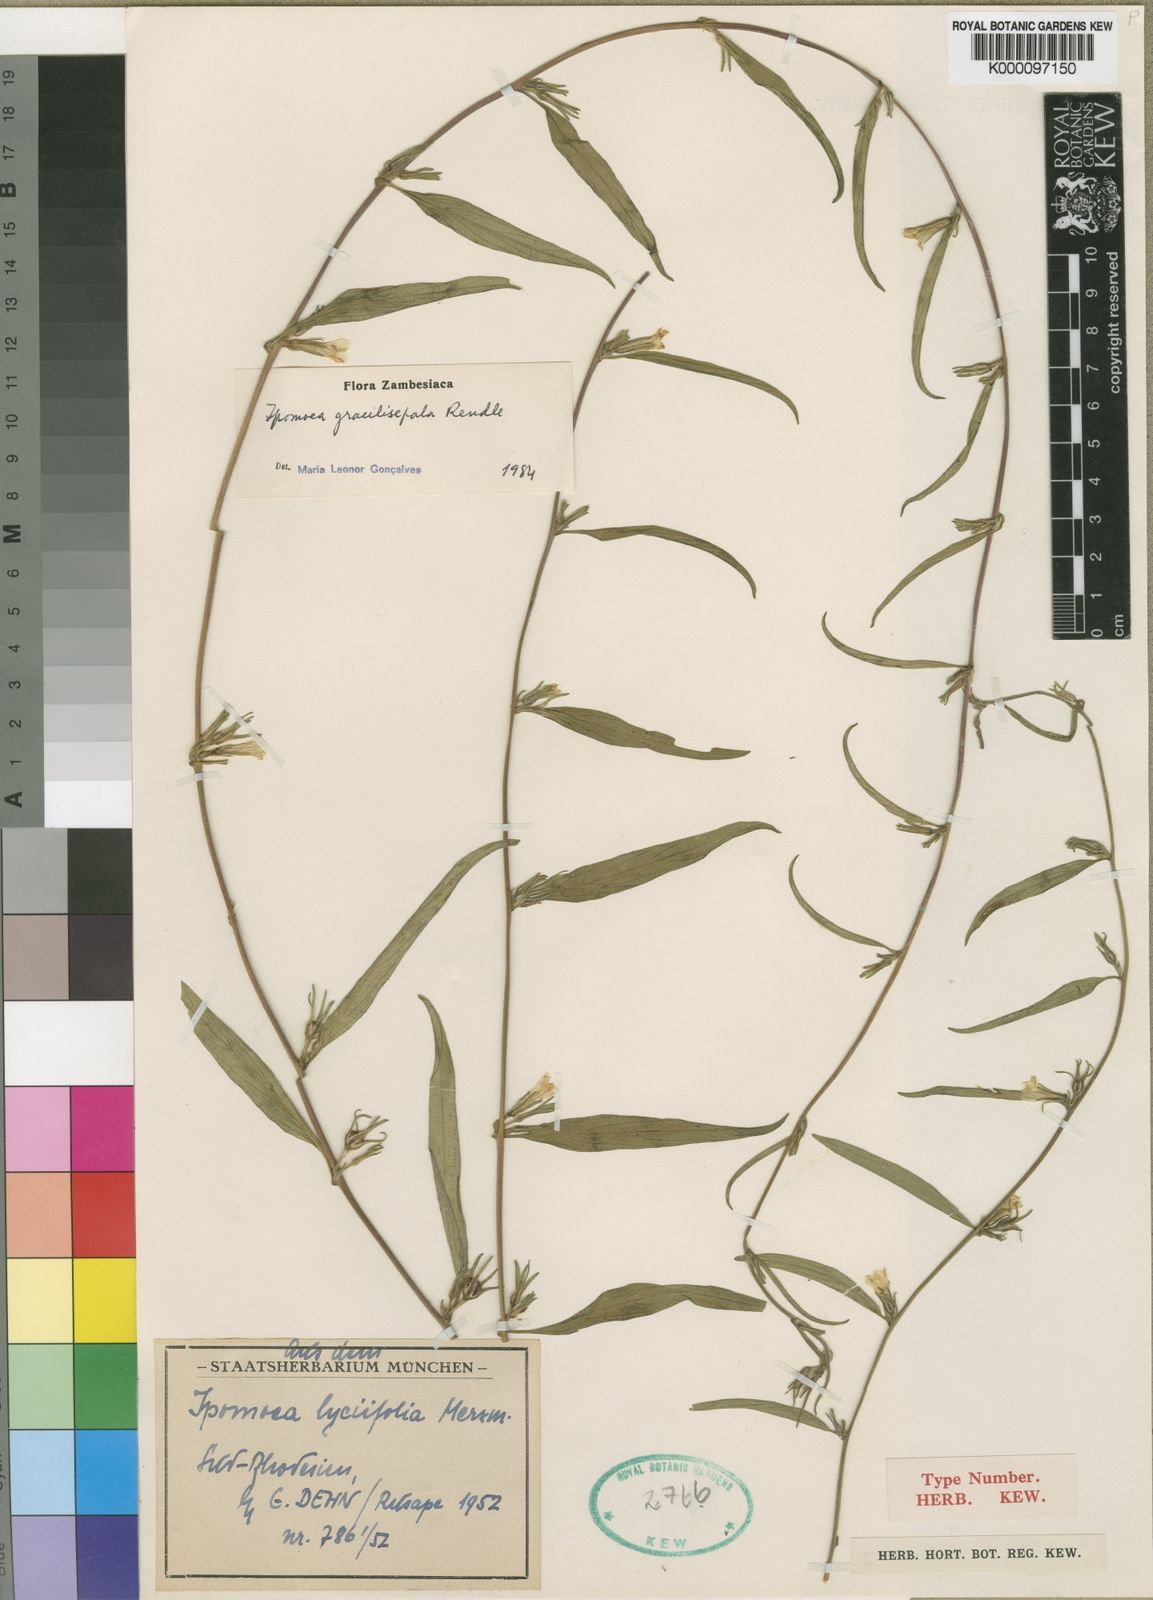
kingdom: Plantae
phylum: Tracheophyta
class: Magnoliopsida
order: Solanales
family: Convolvulaceae
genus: Ipomoea
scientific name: Ipomoea gracilisepala
